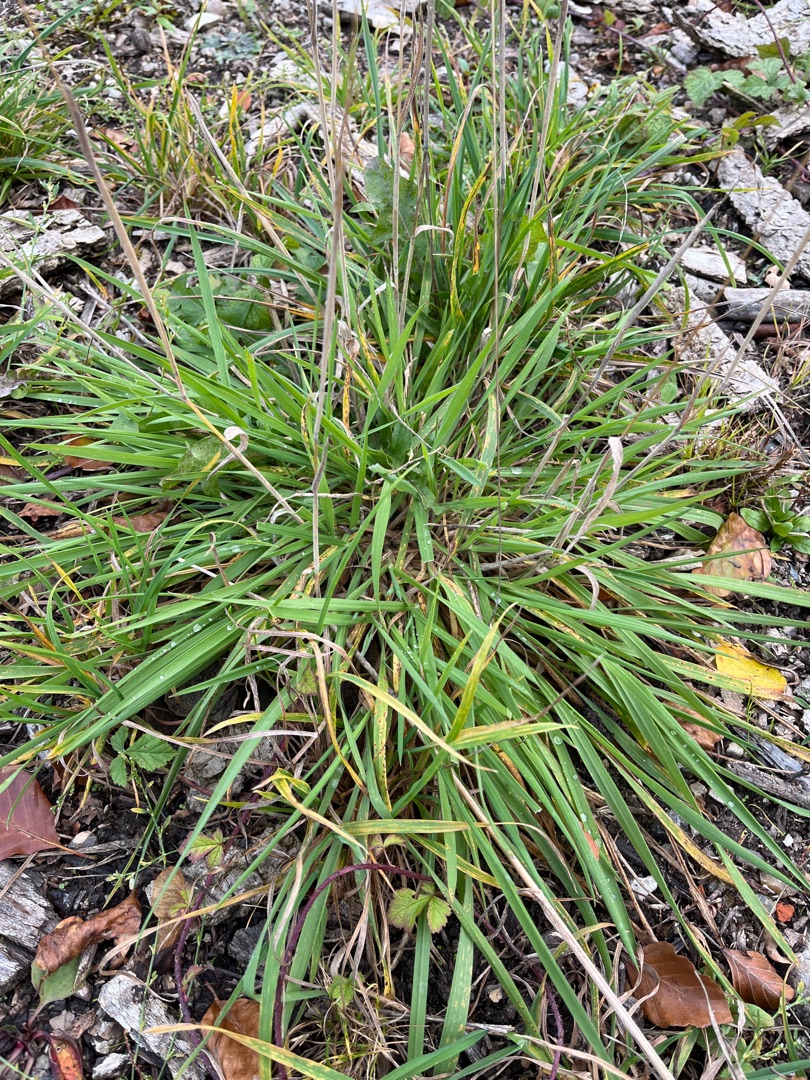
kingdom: Plantae
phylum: Tracheophyta
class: Liliopsida
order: Poales
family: Poaceae
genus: Holcus
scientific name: Holcus lanatus
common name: Fløjlsgræs
